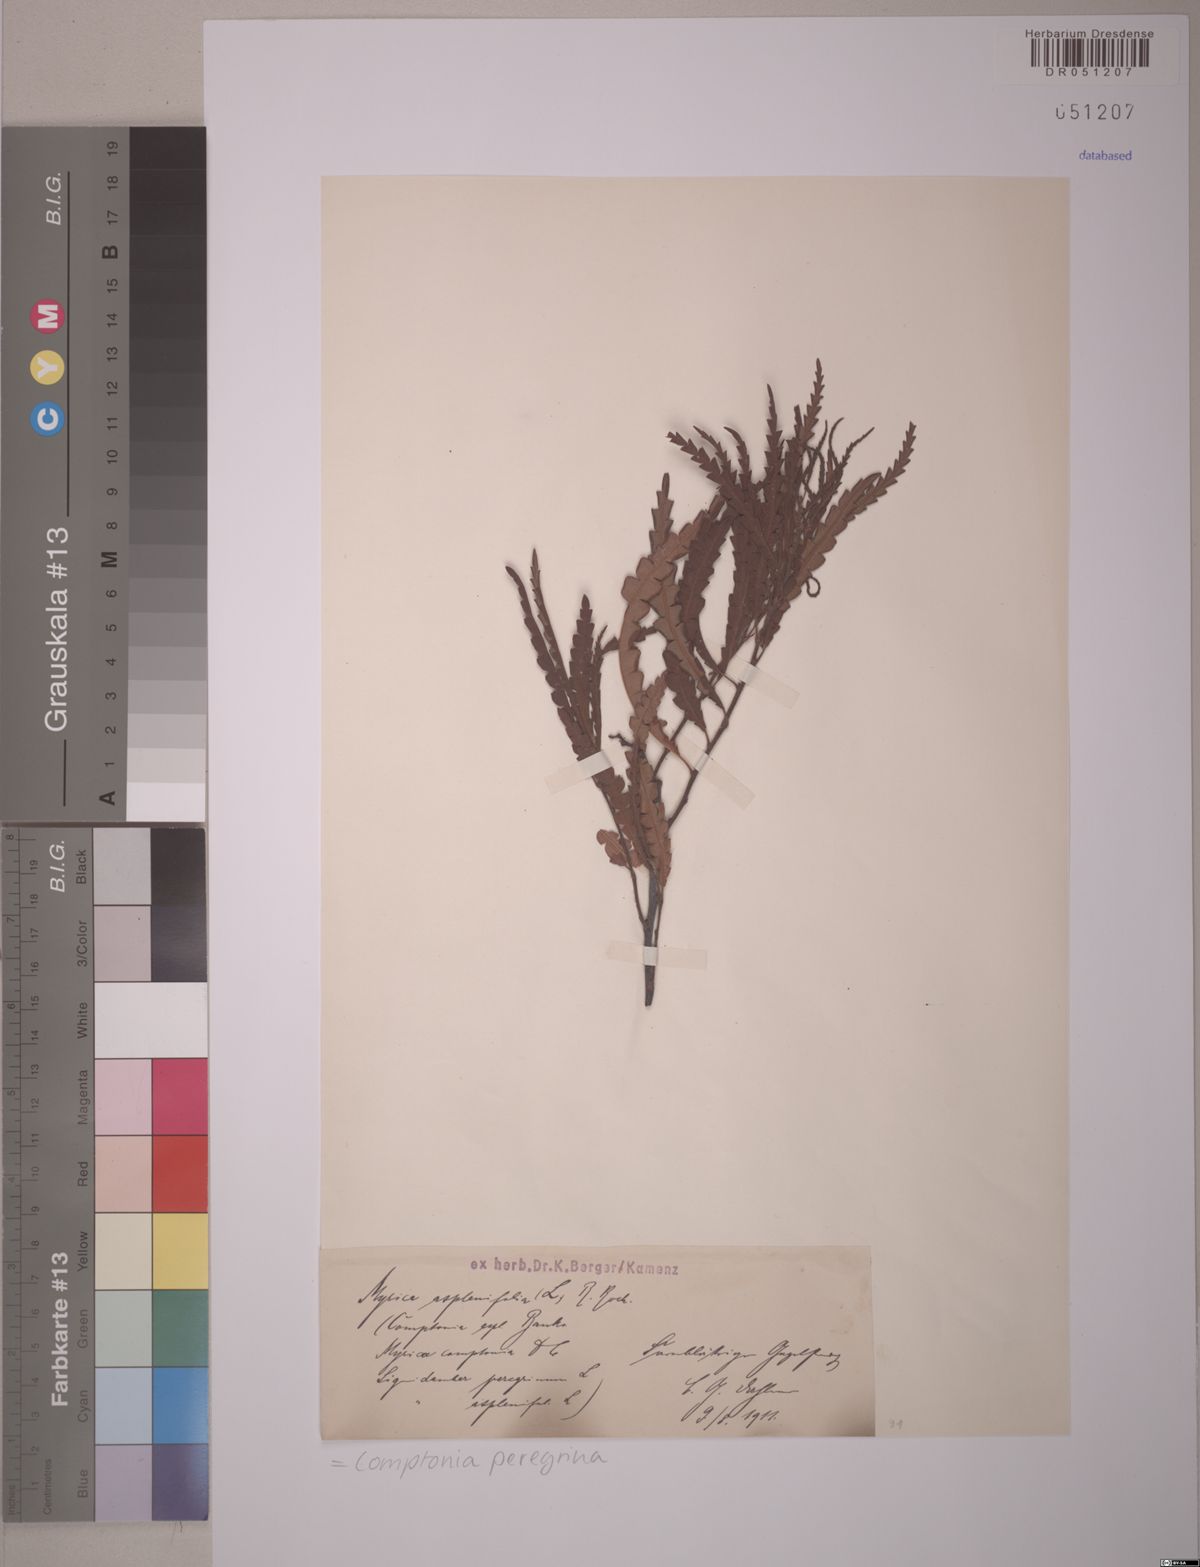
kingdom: Plantae
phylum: Tracheophyta
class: Magnoliopsida
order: Fagales
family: Myricaceae
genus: Comptonia
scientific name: Comptonia peregrina
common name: Sweet-fern
